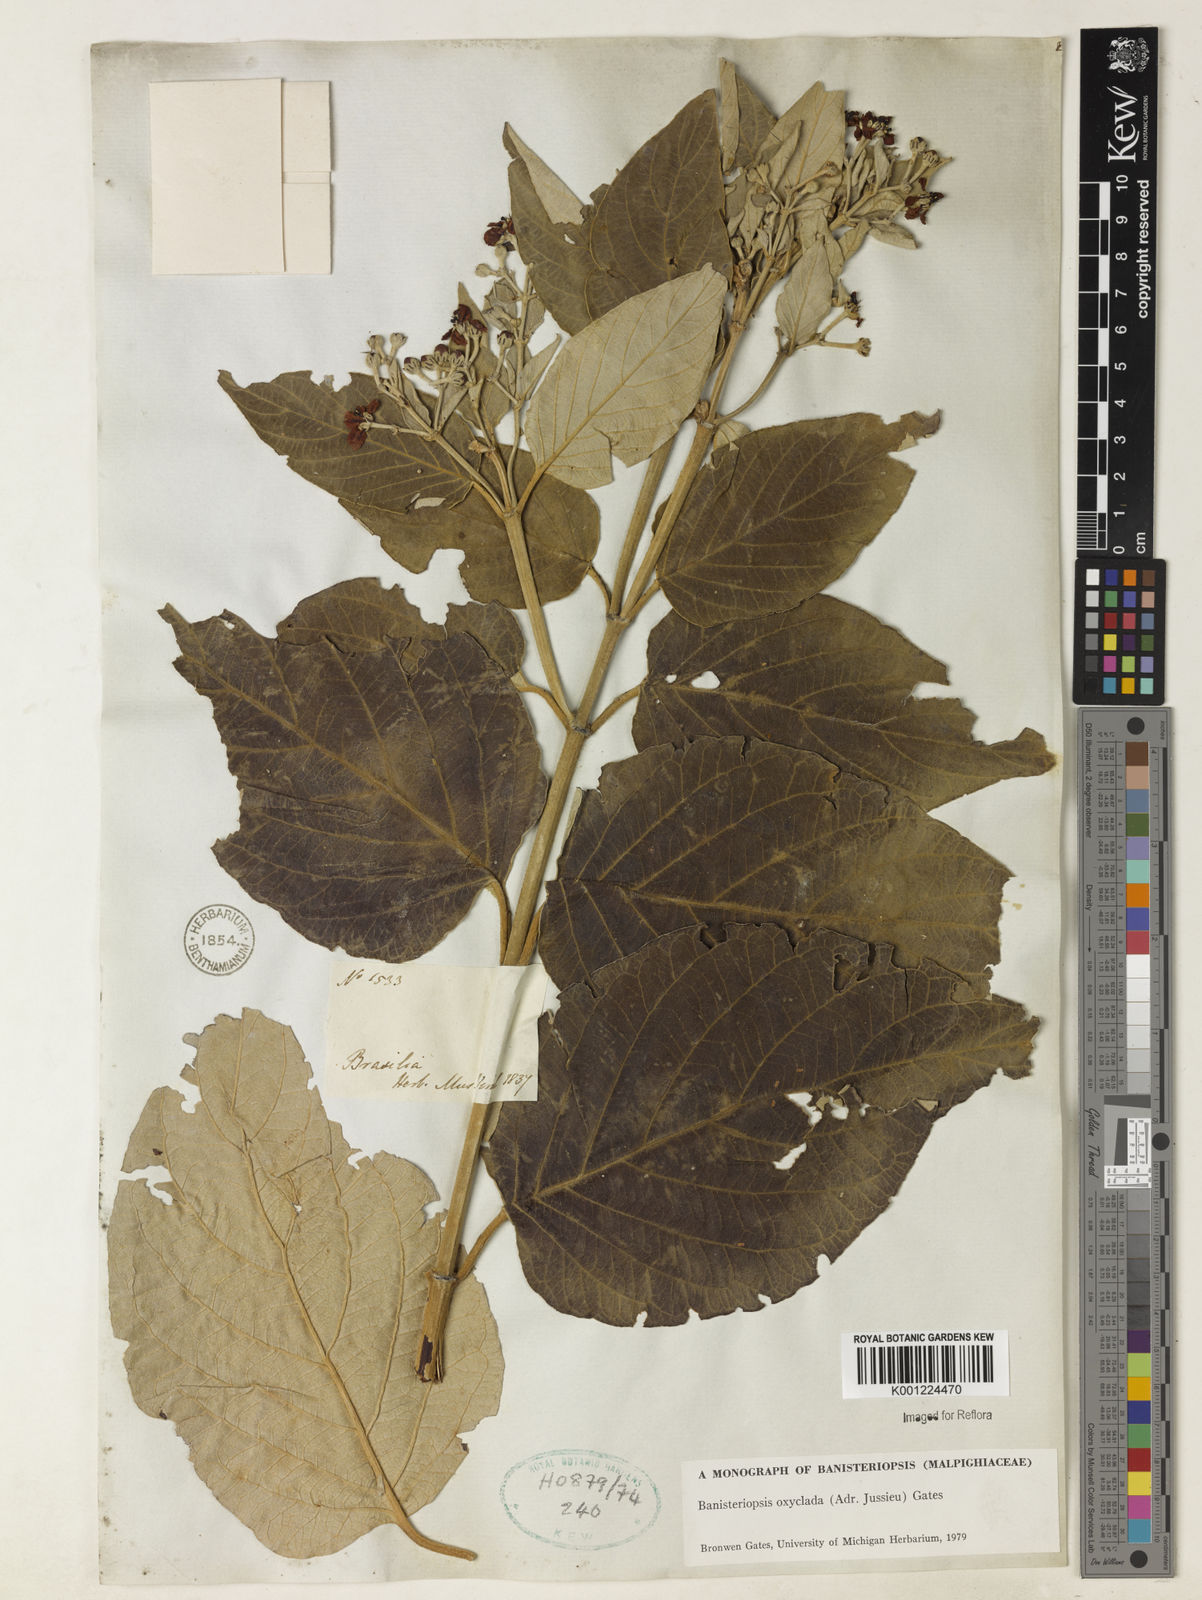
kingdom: Plantae
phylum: Tracheophyta
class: Magnoliopsida
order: Malpighiales
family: Malpighiaceae
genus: Banisteriopsis
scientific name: Banisteriopsis oxyclada
